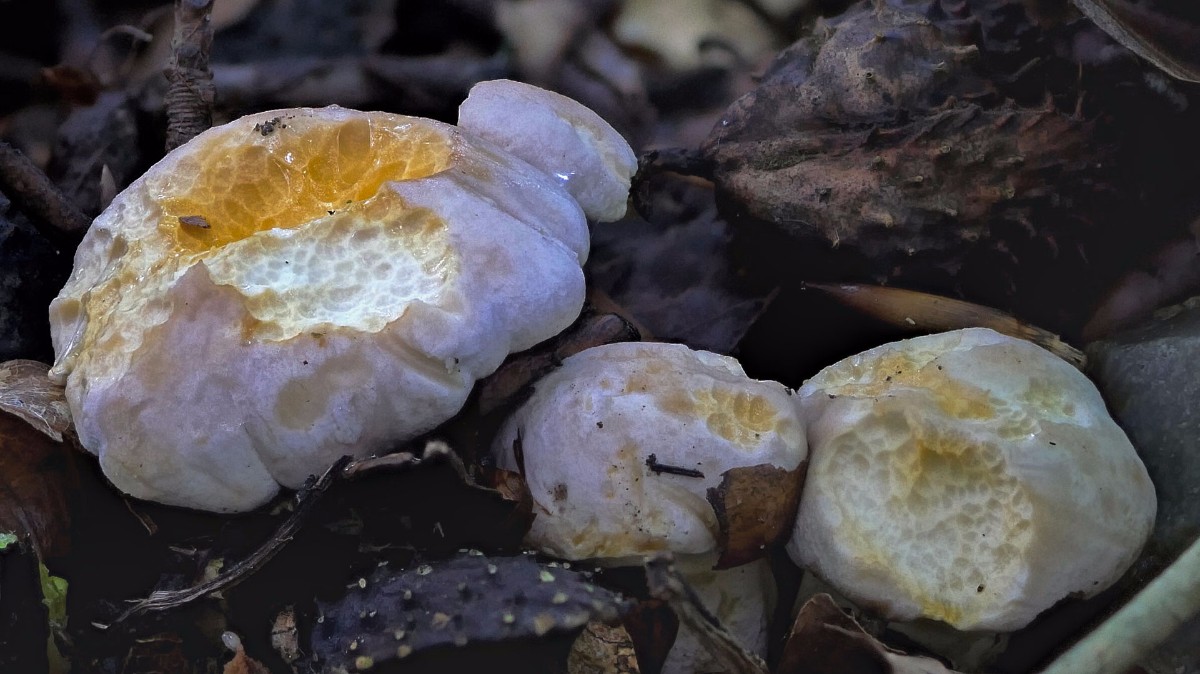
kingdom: Fungi
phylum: Basidiomycota
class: Agaricomycetes
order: Cantharellales
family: Hydnaceae
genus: Cantharellus
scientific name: Cantharellus pallens
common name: bleg kantarel
